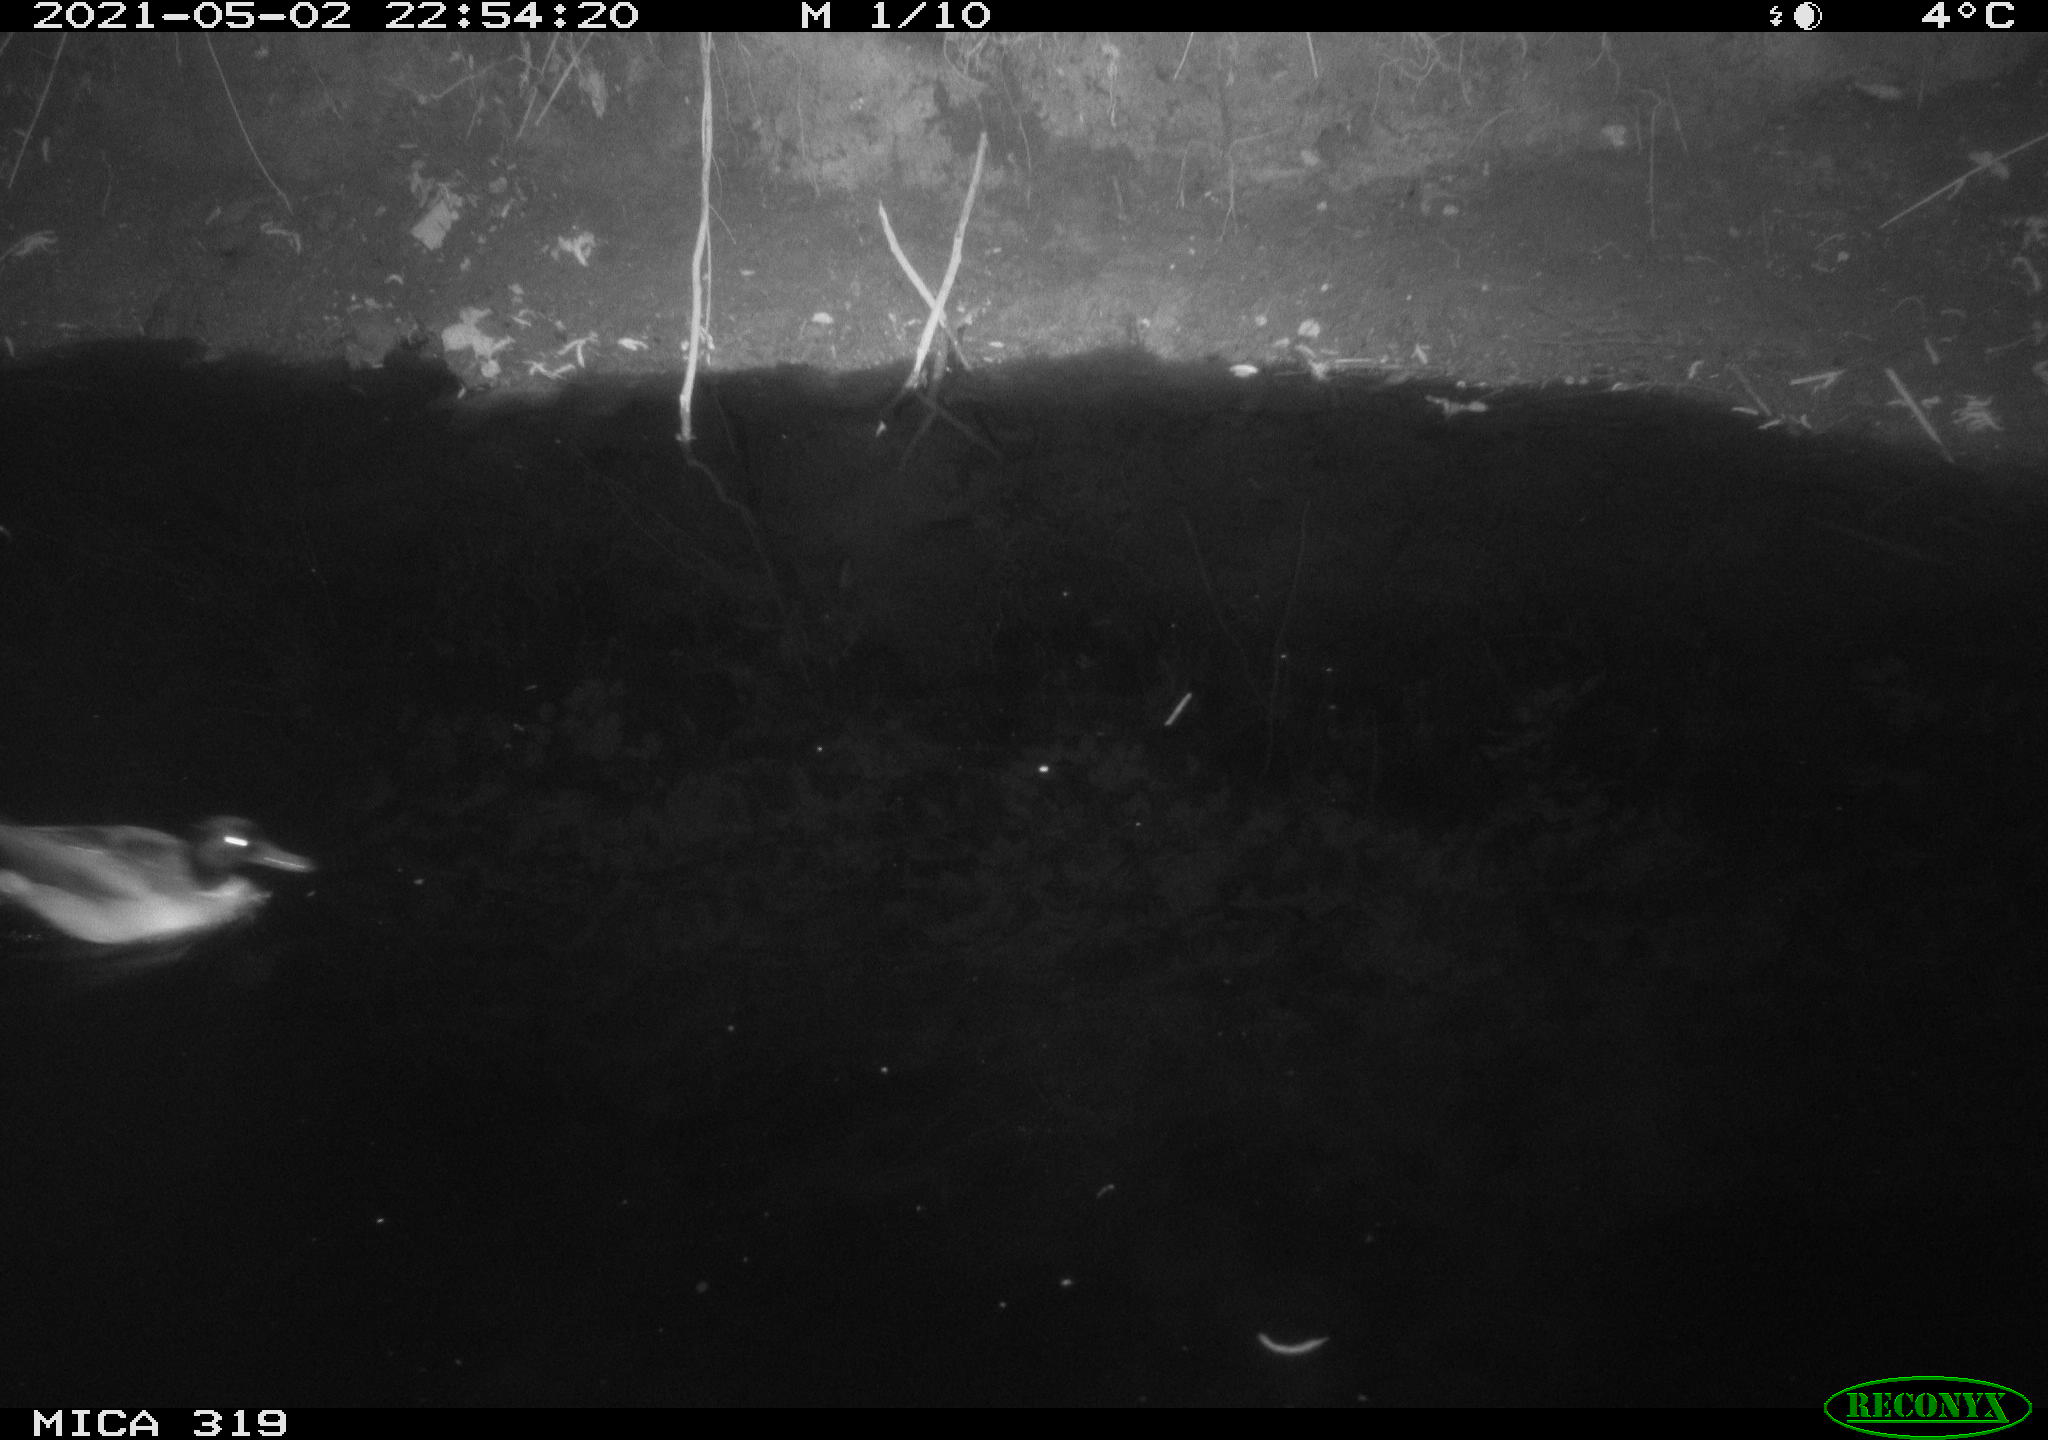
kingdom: Animalia
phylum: Chordata
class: Aves
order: Anseriformes
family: Anatidae
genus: Anas
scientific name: Anas platyrhynchos
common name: Mallard
